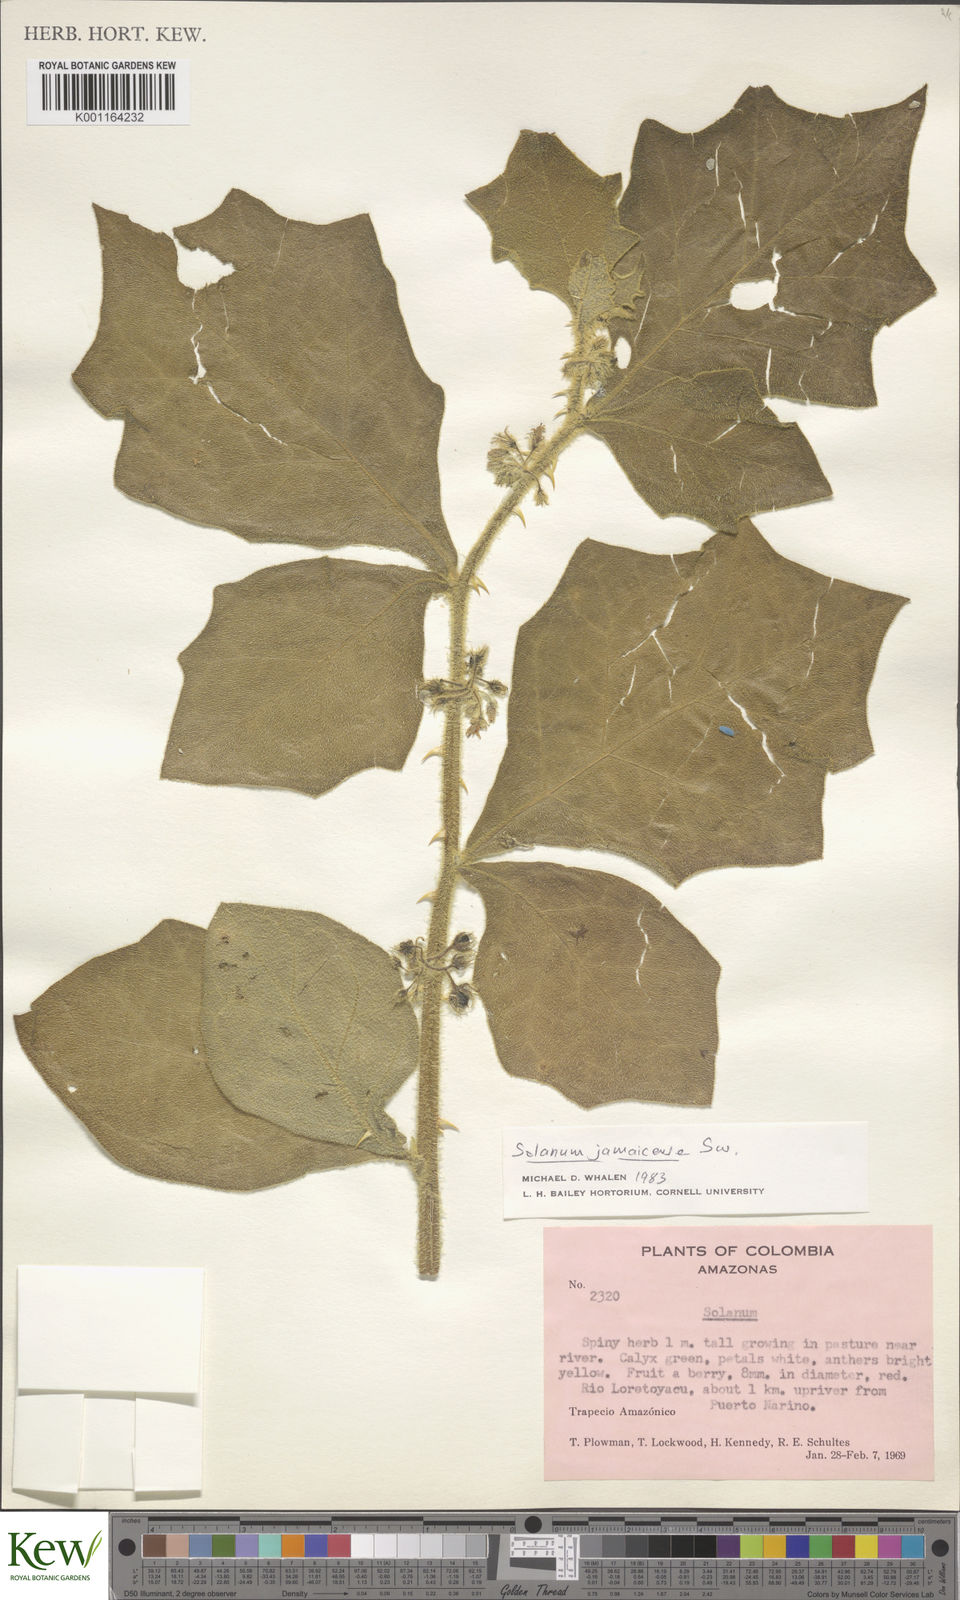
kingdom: Plantae
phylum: Tracheophyta
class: Magnoliopsida
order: Solanales
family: Solanaceae
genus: Solanum
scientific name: Solanum jamaicense
